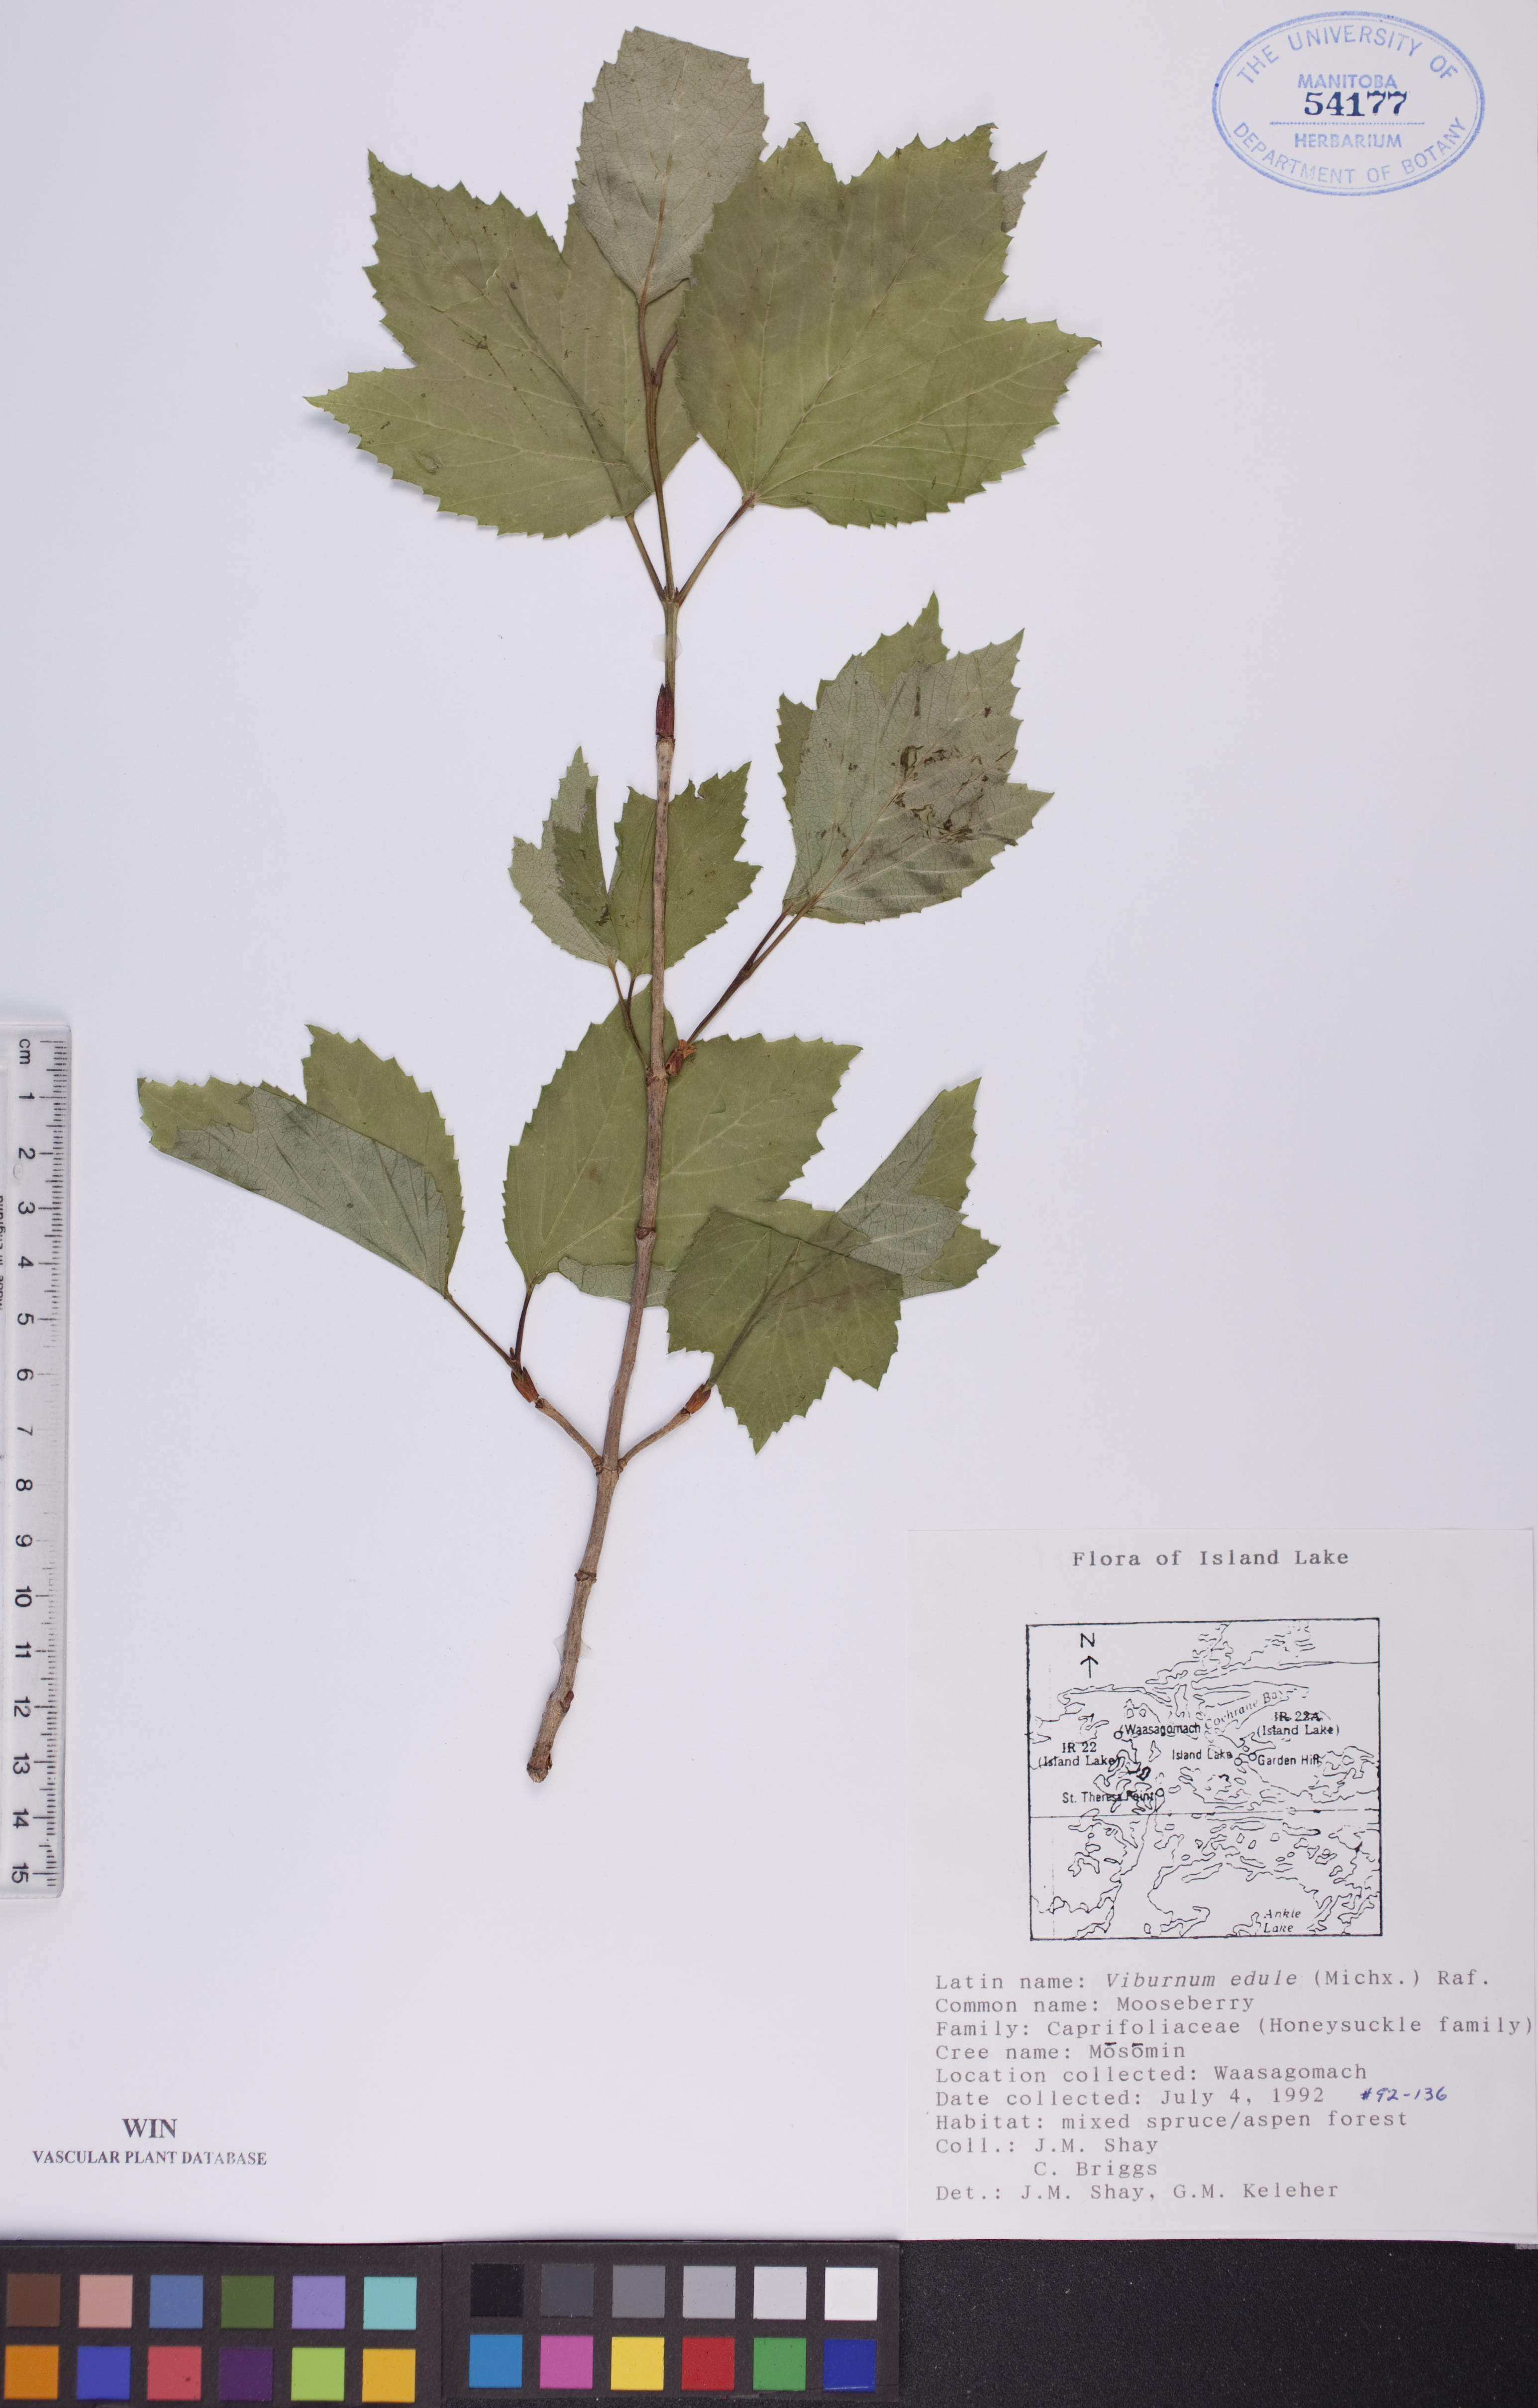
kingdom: Plantae
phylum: Tracheophyta
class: Magnoliopsida
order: Dipsacales
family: Viburnaceae
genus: Viburnum
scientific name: Viburnum edule
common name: Mooseberry
